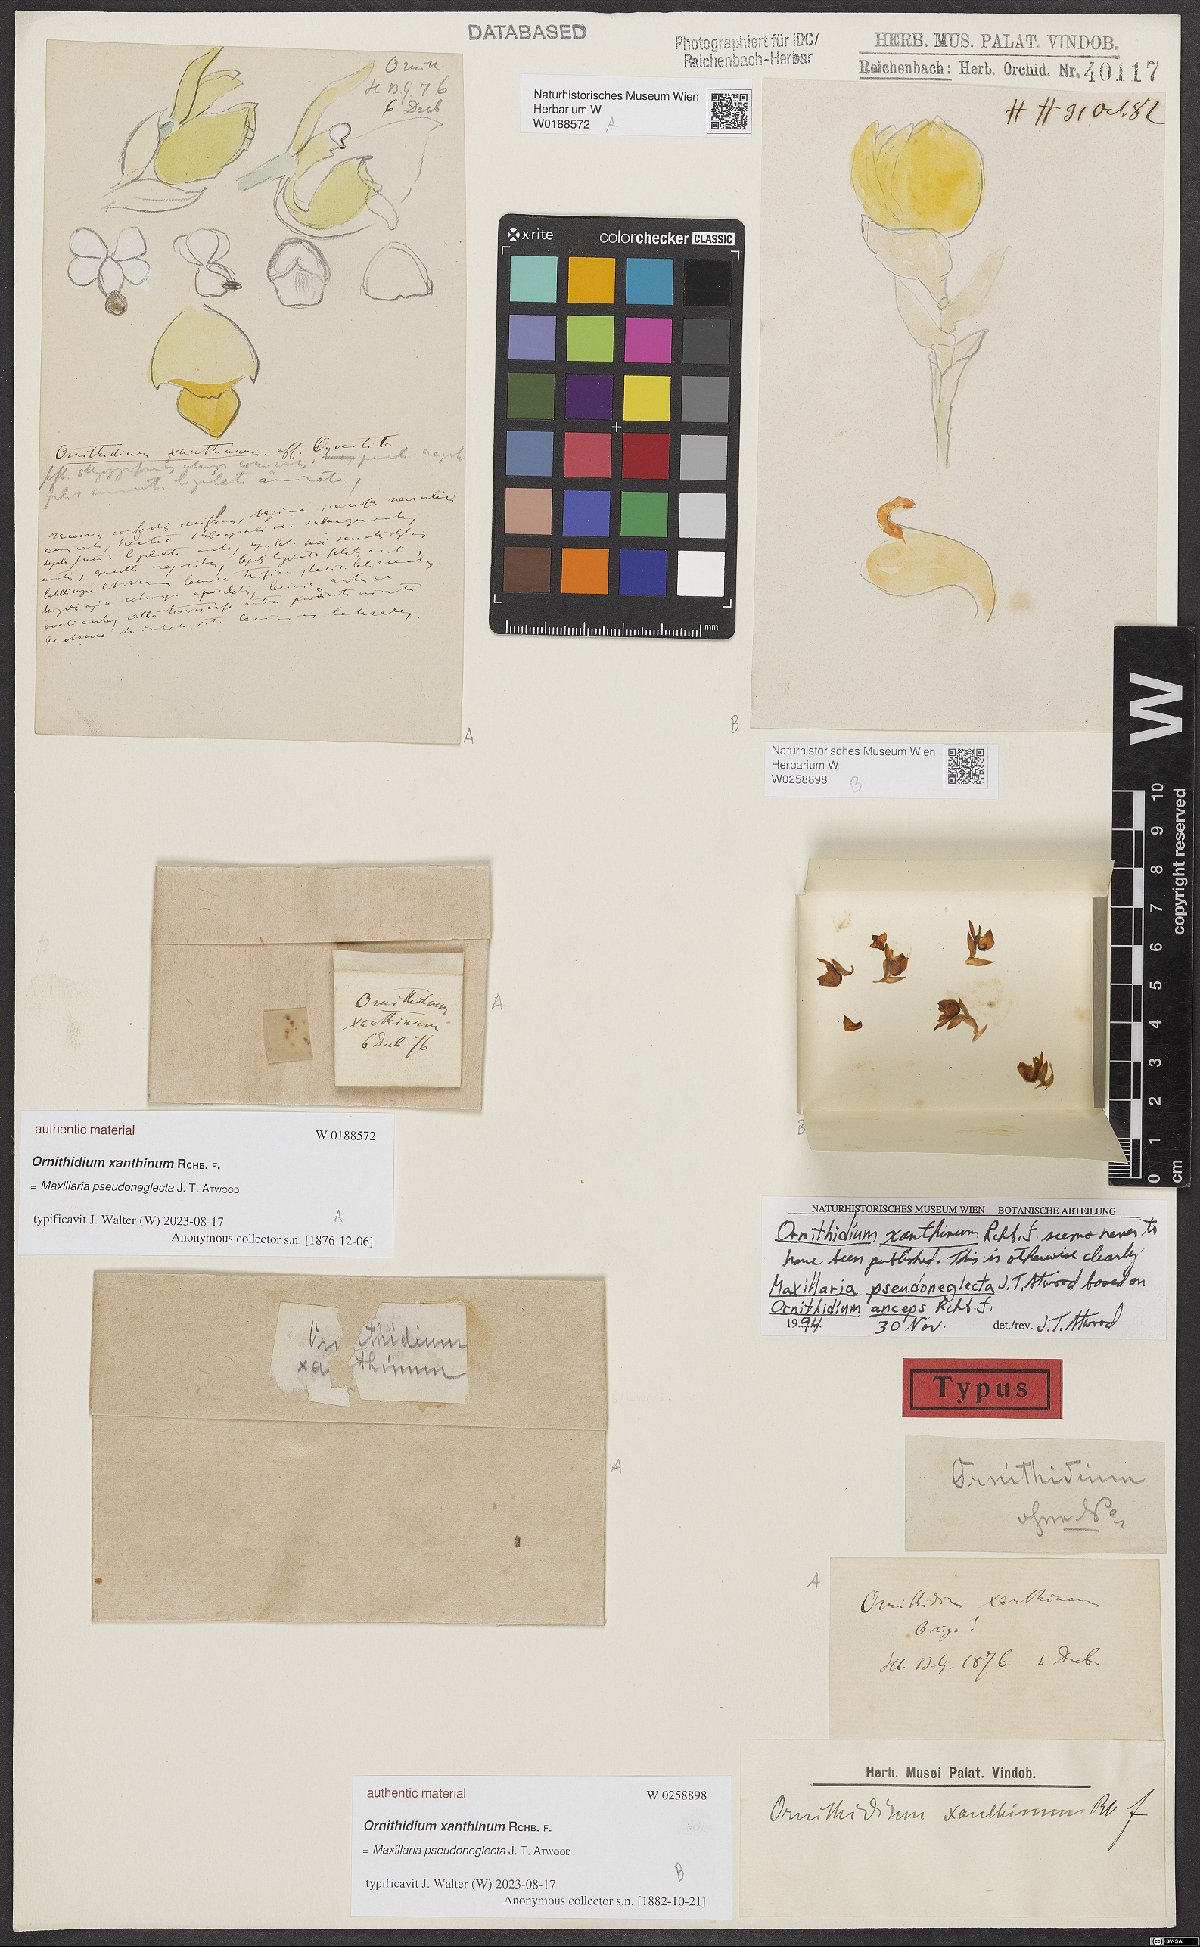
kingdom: Plantae
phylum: Tracheophyta
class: Liliopsida
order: Asparagales
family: Orchidaceae
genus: Maxillaria
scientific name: Maxillaria
